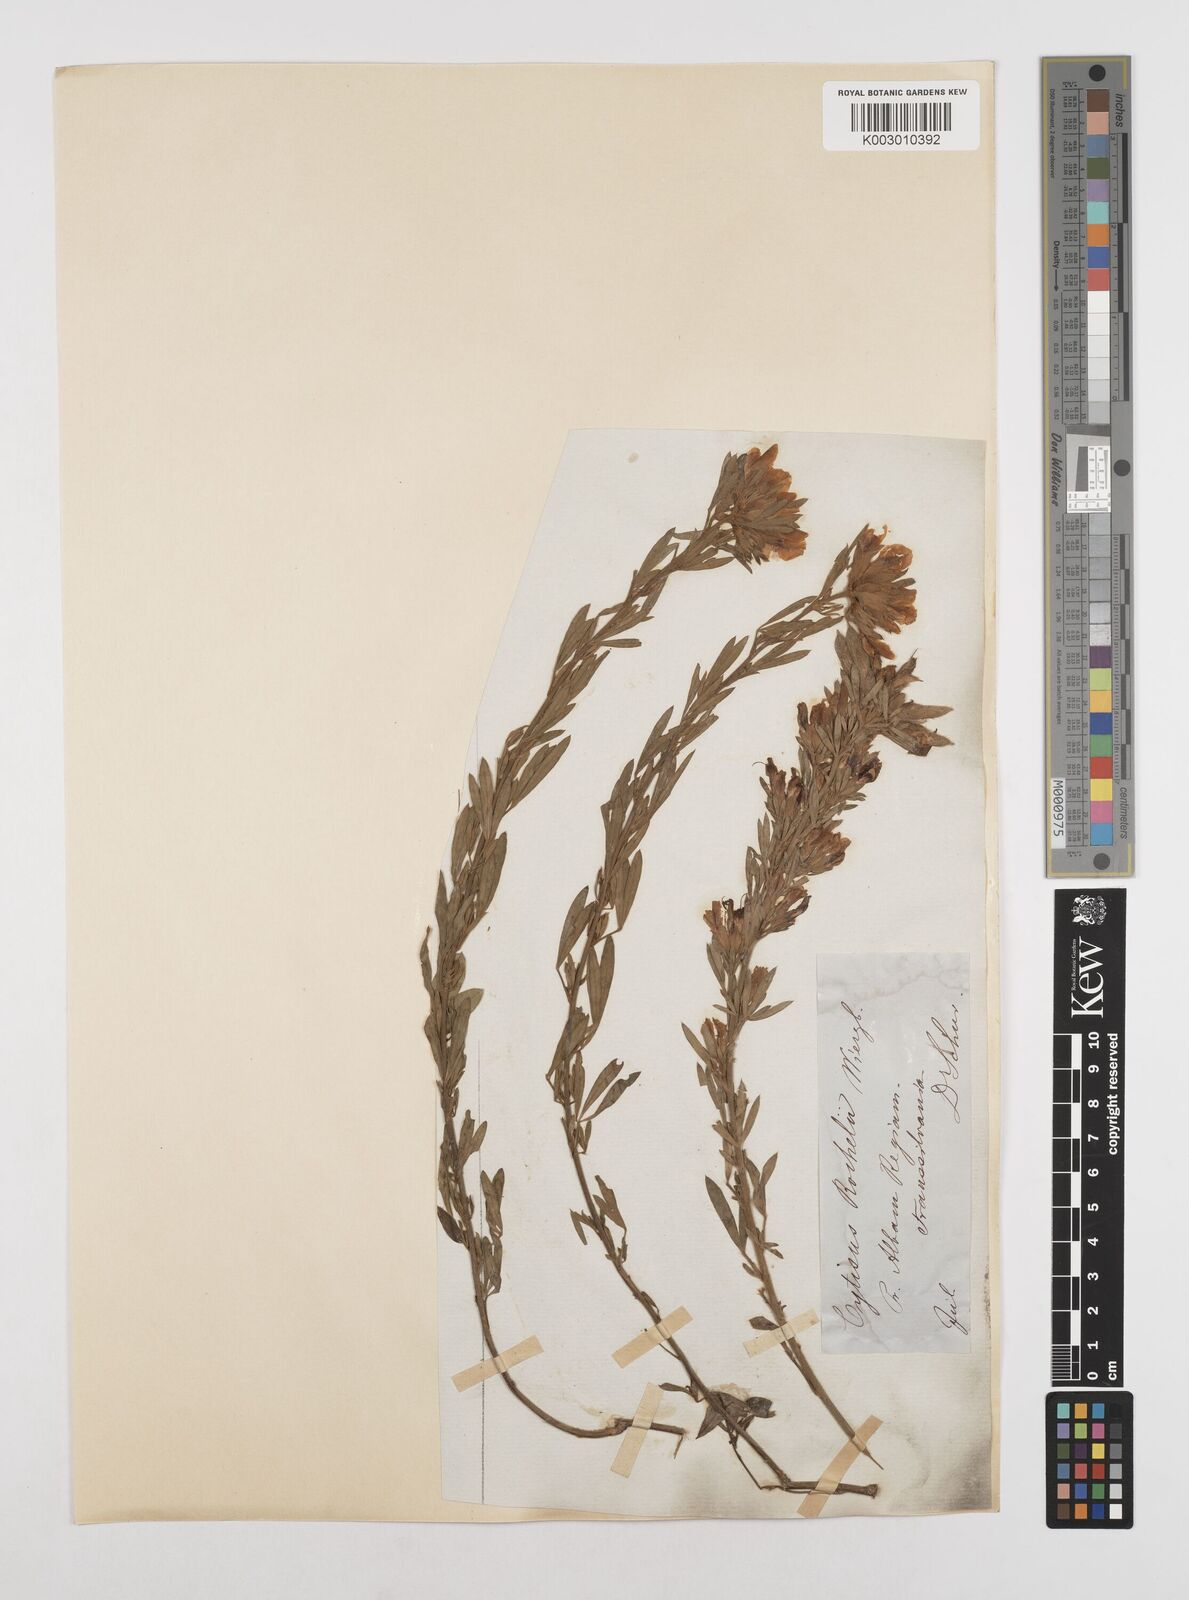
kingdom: Plantae
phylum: Tracheophyta
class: Magnoliopsida
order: Fabales
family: Fabaceae
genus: Chamaecytisus
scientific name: Chamaecytisus rochelii
